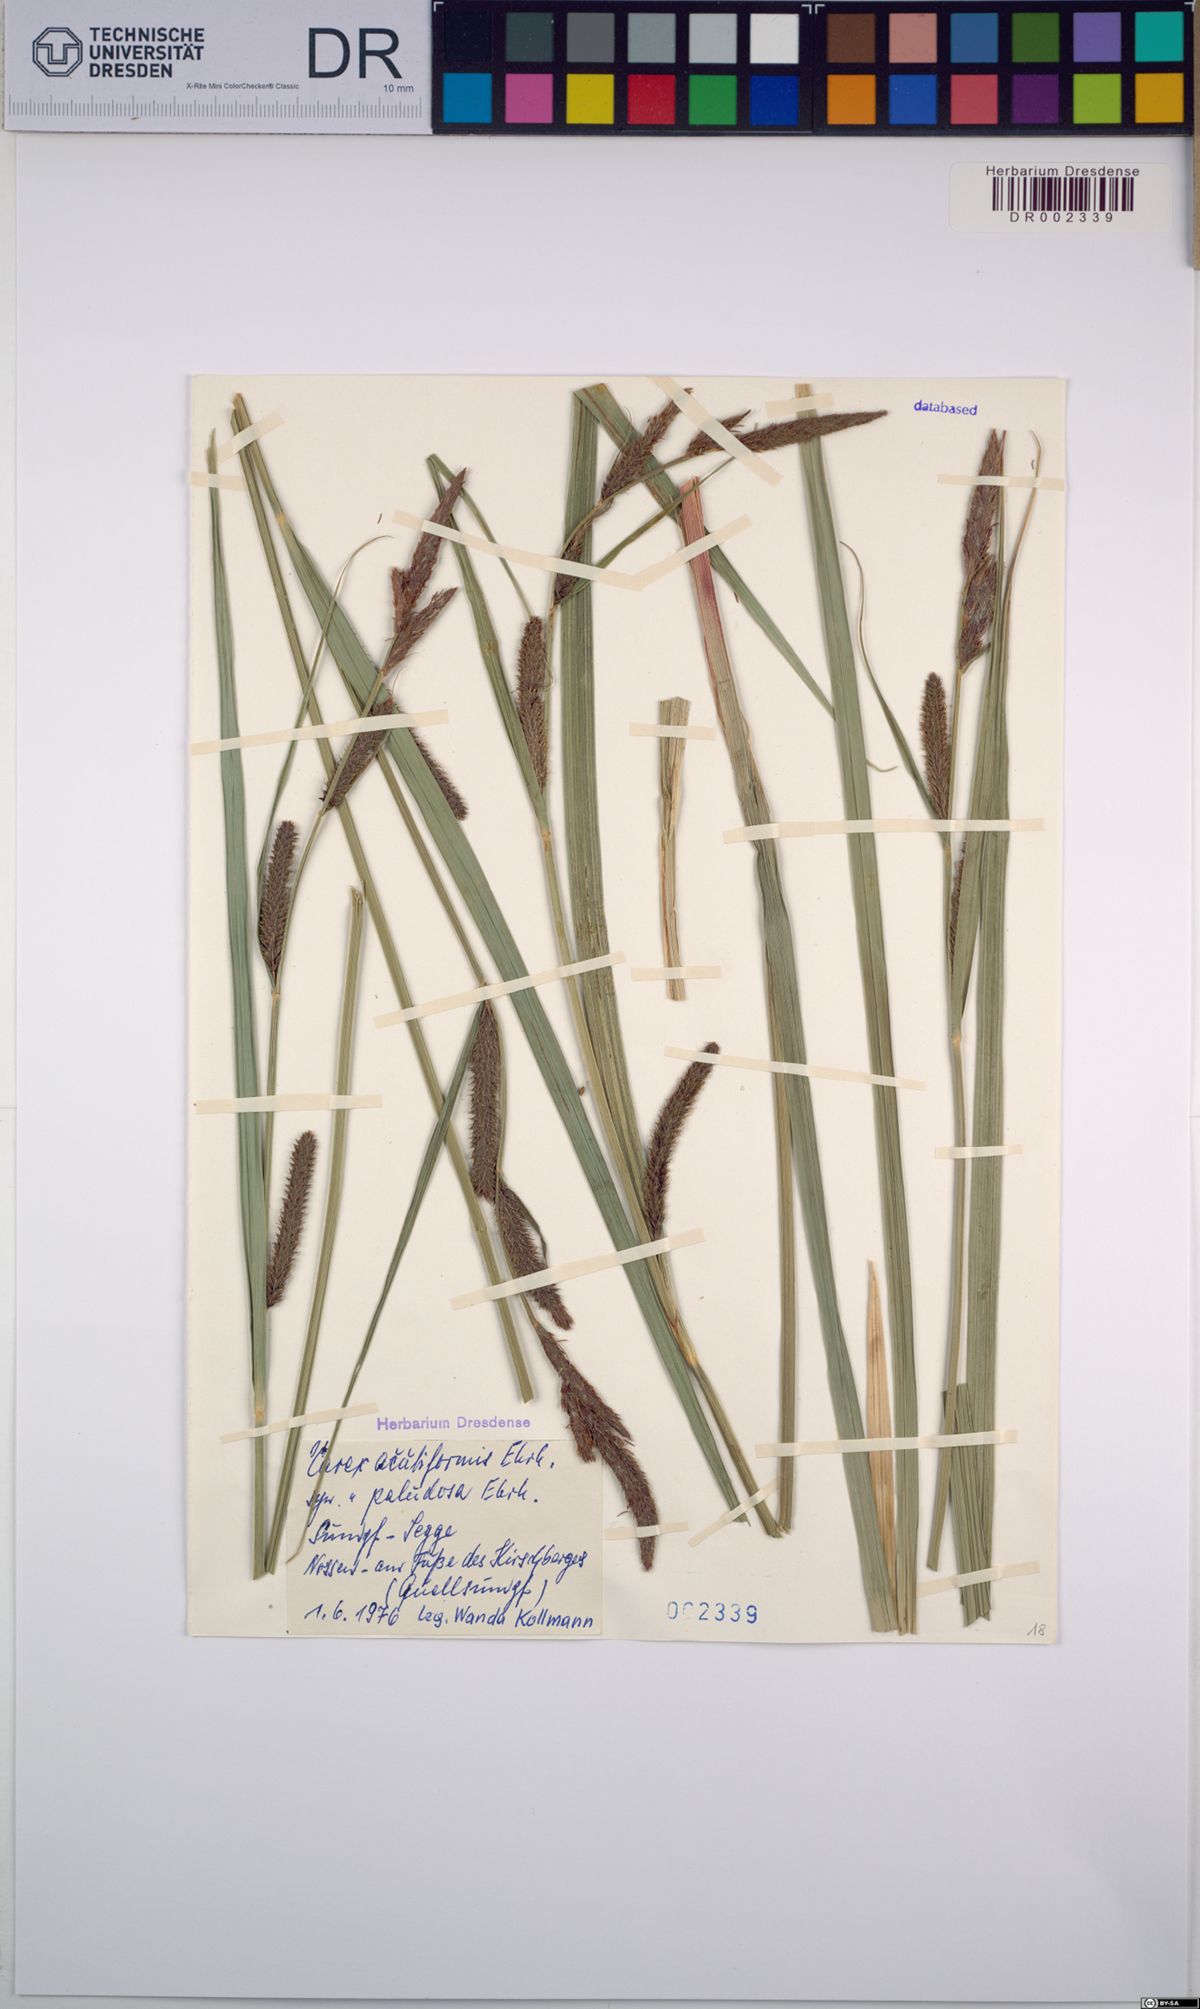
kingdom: Plantae
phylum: Tracheophyta
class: Liliopsida
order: Poales
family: Cyperaceae
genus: Carex
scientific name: Carex acutiformis
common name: Lesser pond-sedge
